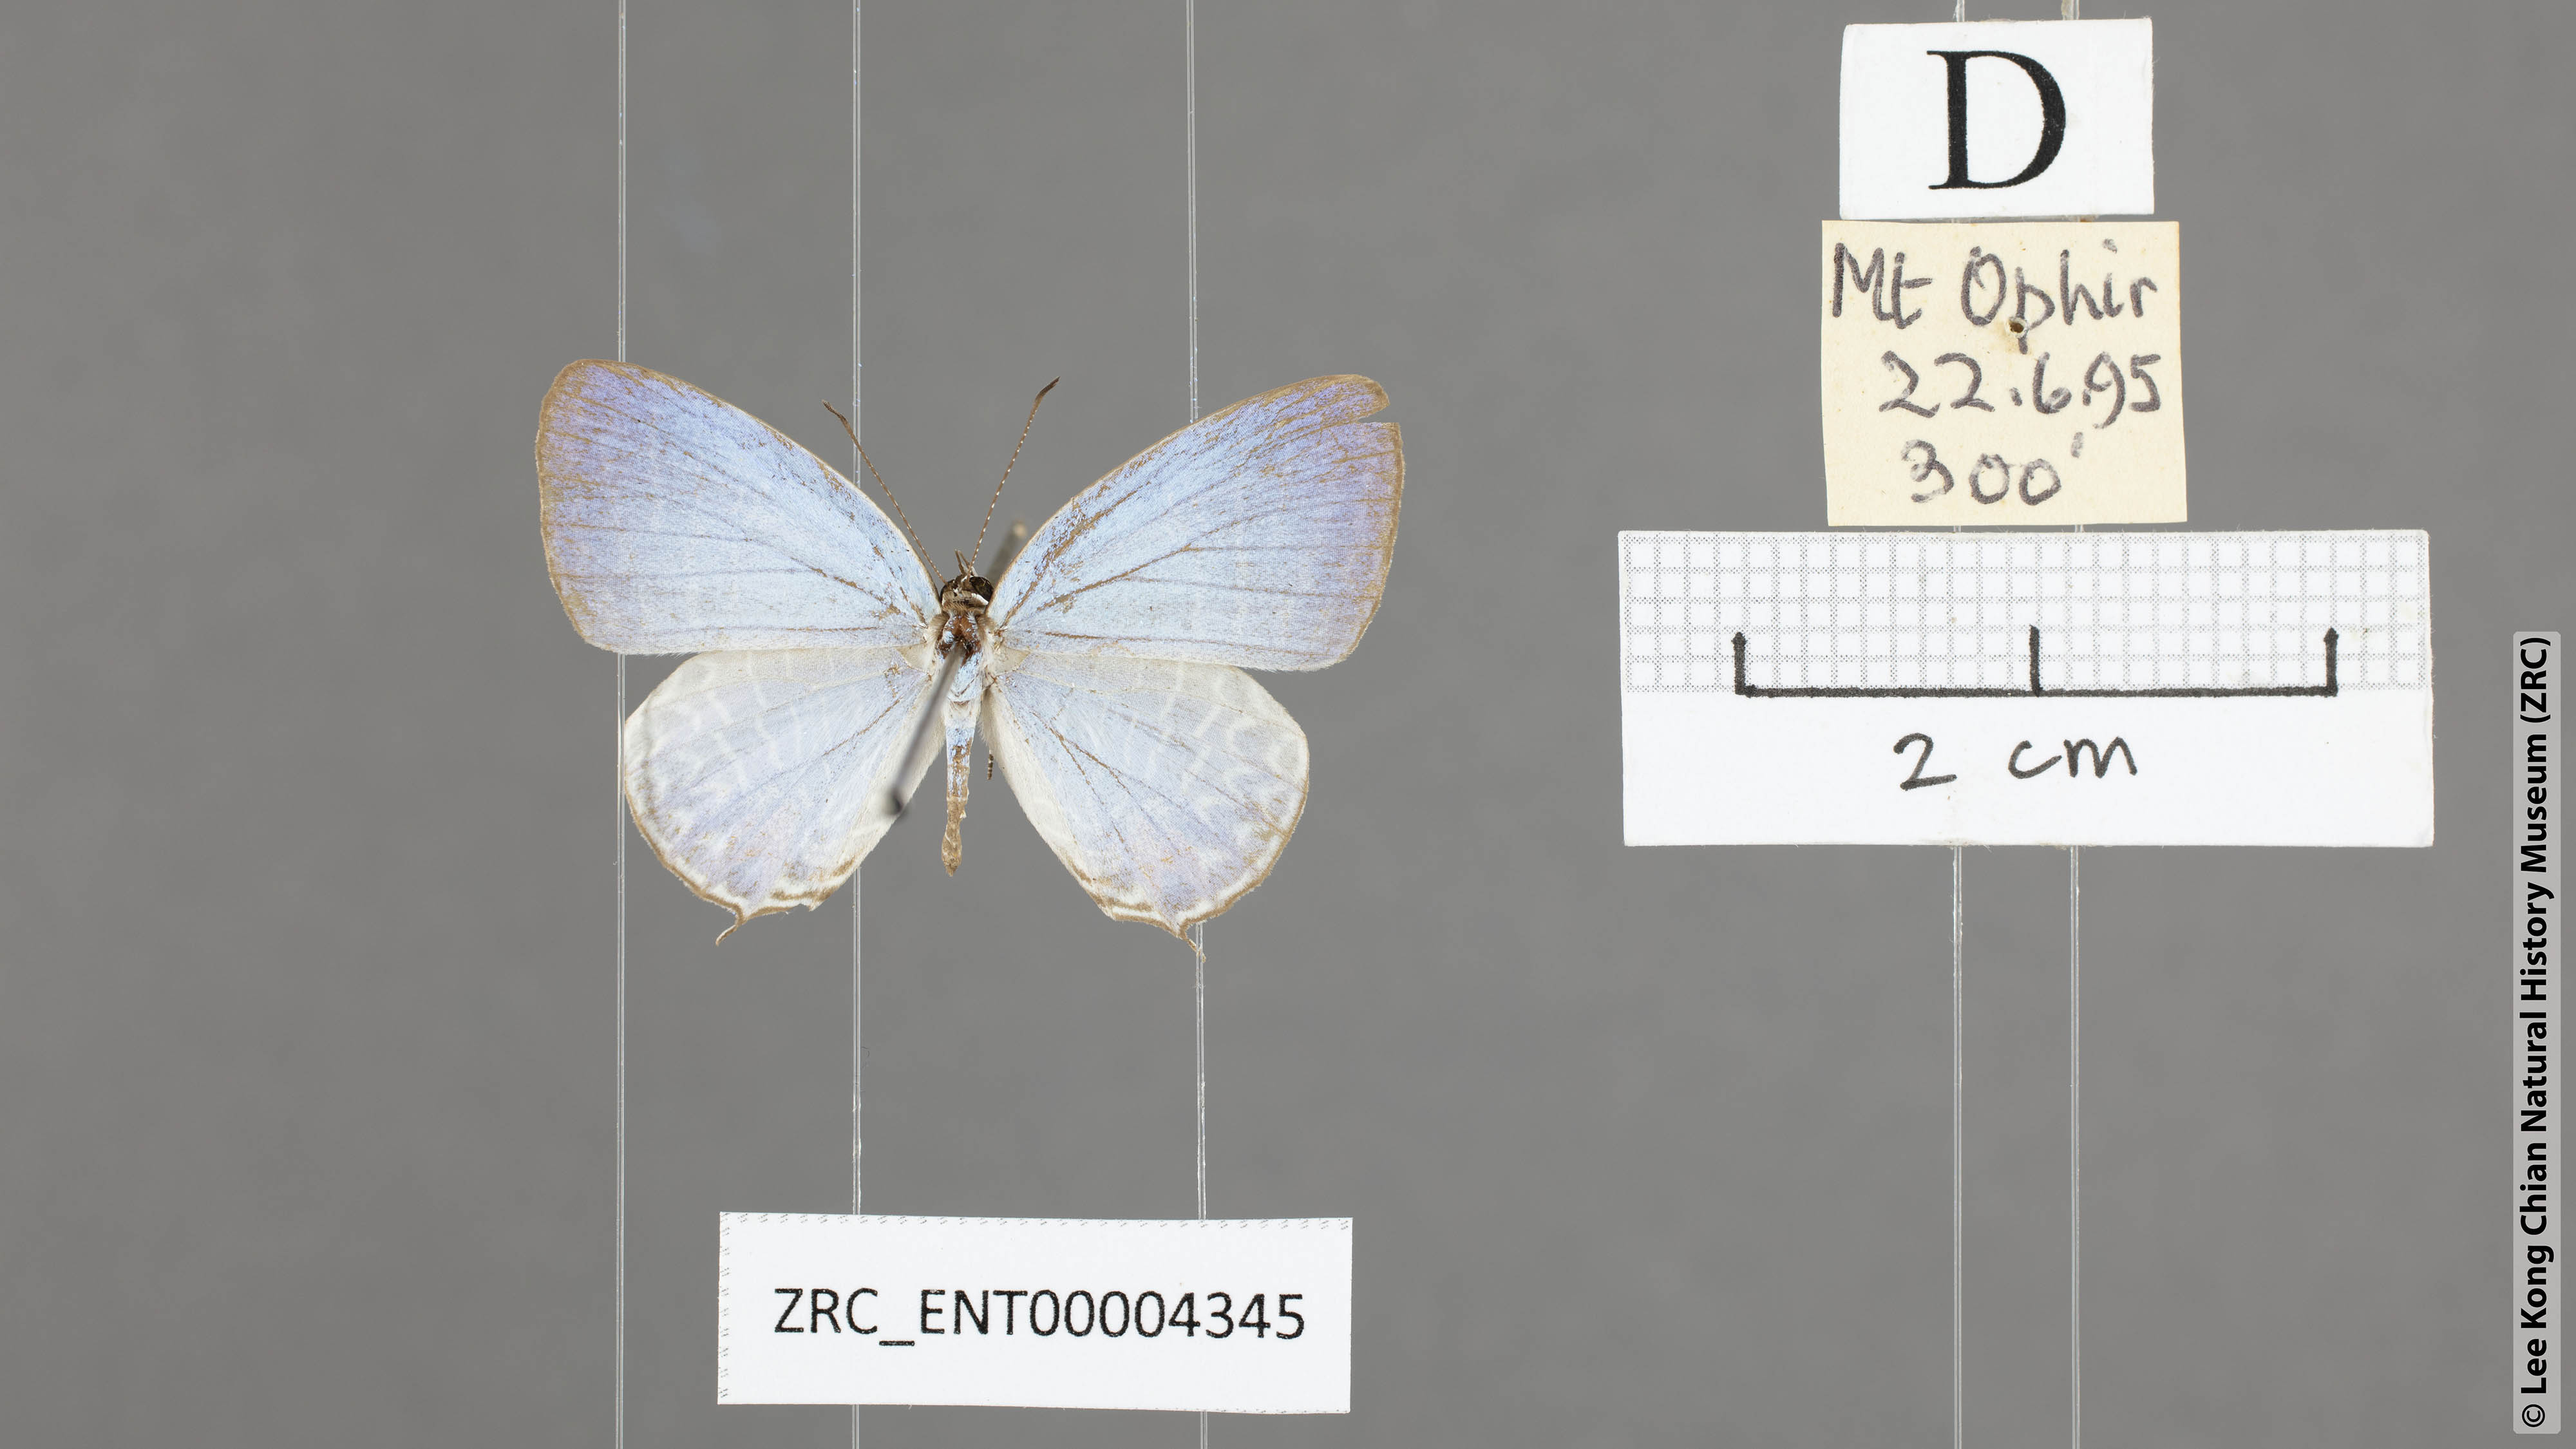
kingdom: Animalia
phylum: Arthropoda
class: Insecta
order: Lepidoptera
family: Lycaenidae
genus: Jamides
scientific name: Jamides
